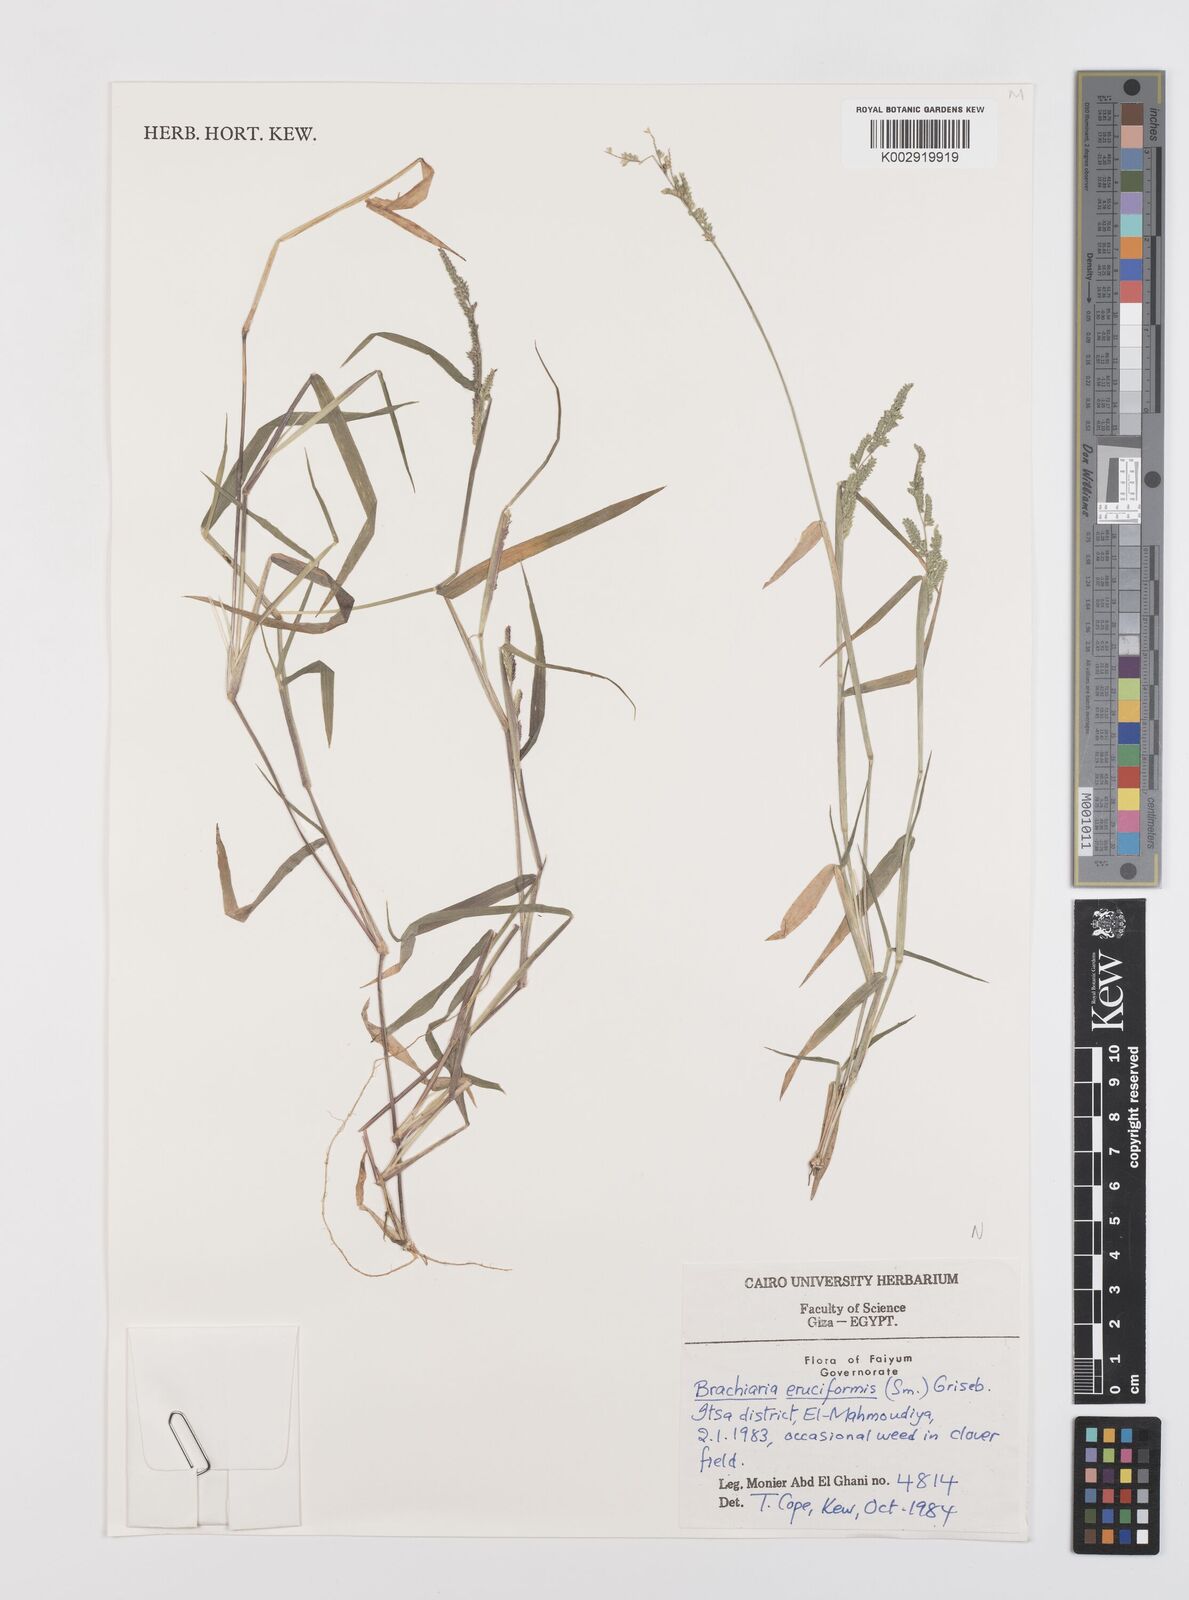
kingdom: Plantae
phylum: Tracheophyta
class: Liliopsida
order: Poales
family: Poaceae
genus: Moorochloa
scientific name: Moorochloa eruciformis
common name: Sweet signalgrass
